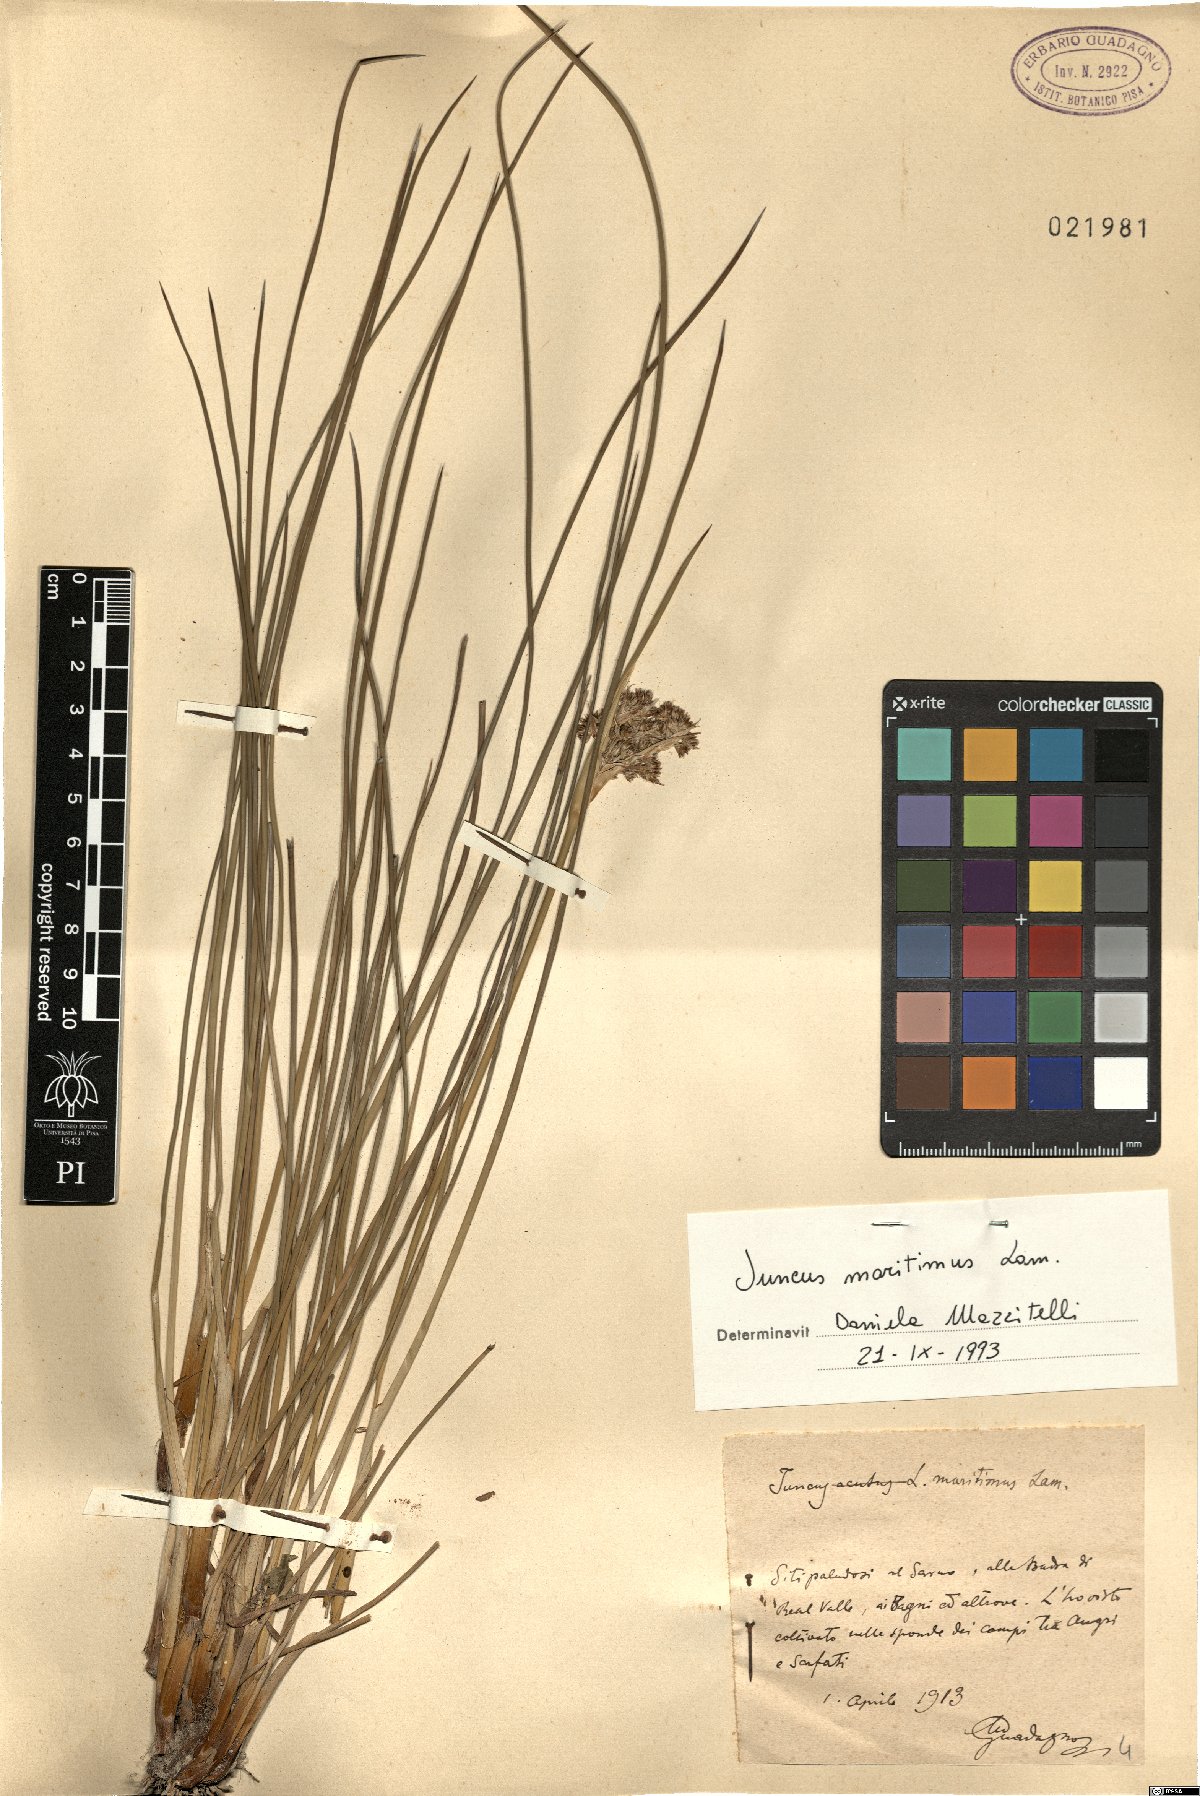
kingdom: Plantae
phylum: Tracheophyta
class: Liliopsida
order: Poales
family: Juncaceae
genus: Juncus
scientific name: Juncus maritimus
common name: Sea rush
